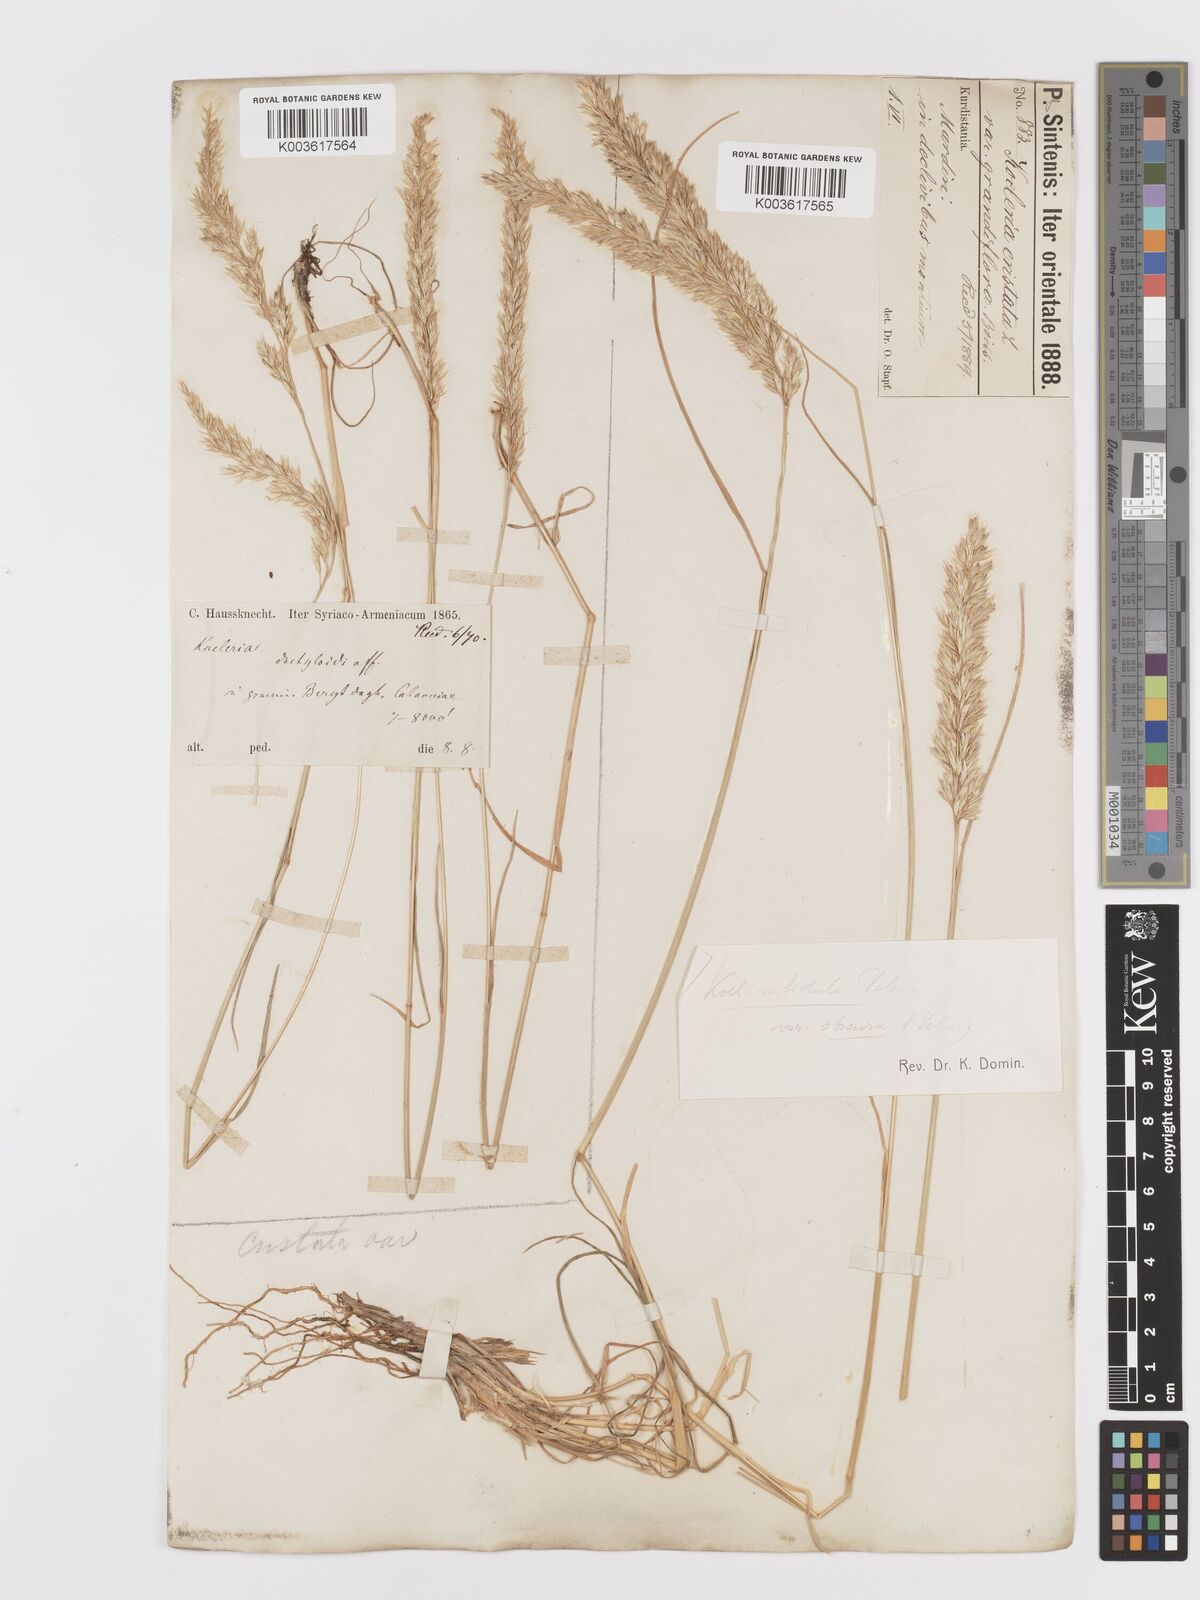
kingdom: Plantae
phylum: Tracheophyta
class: Liliopsida
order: Poales
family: Poaceae
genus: Koeleria
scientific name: Koeleria nitidula
